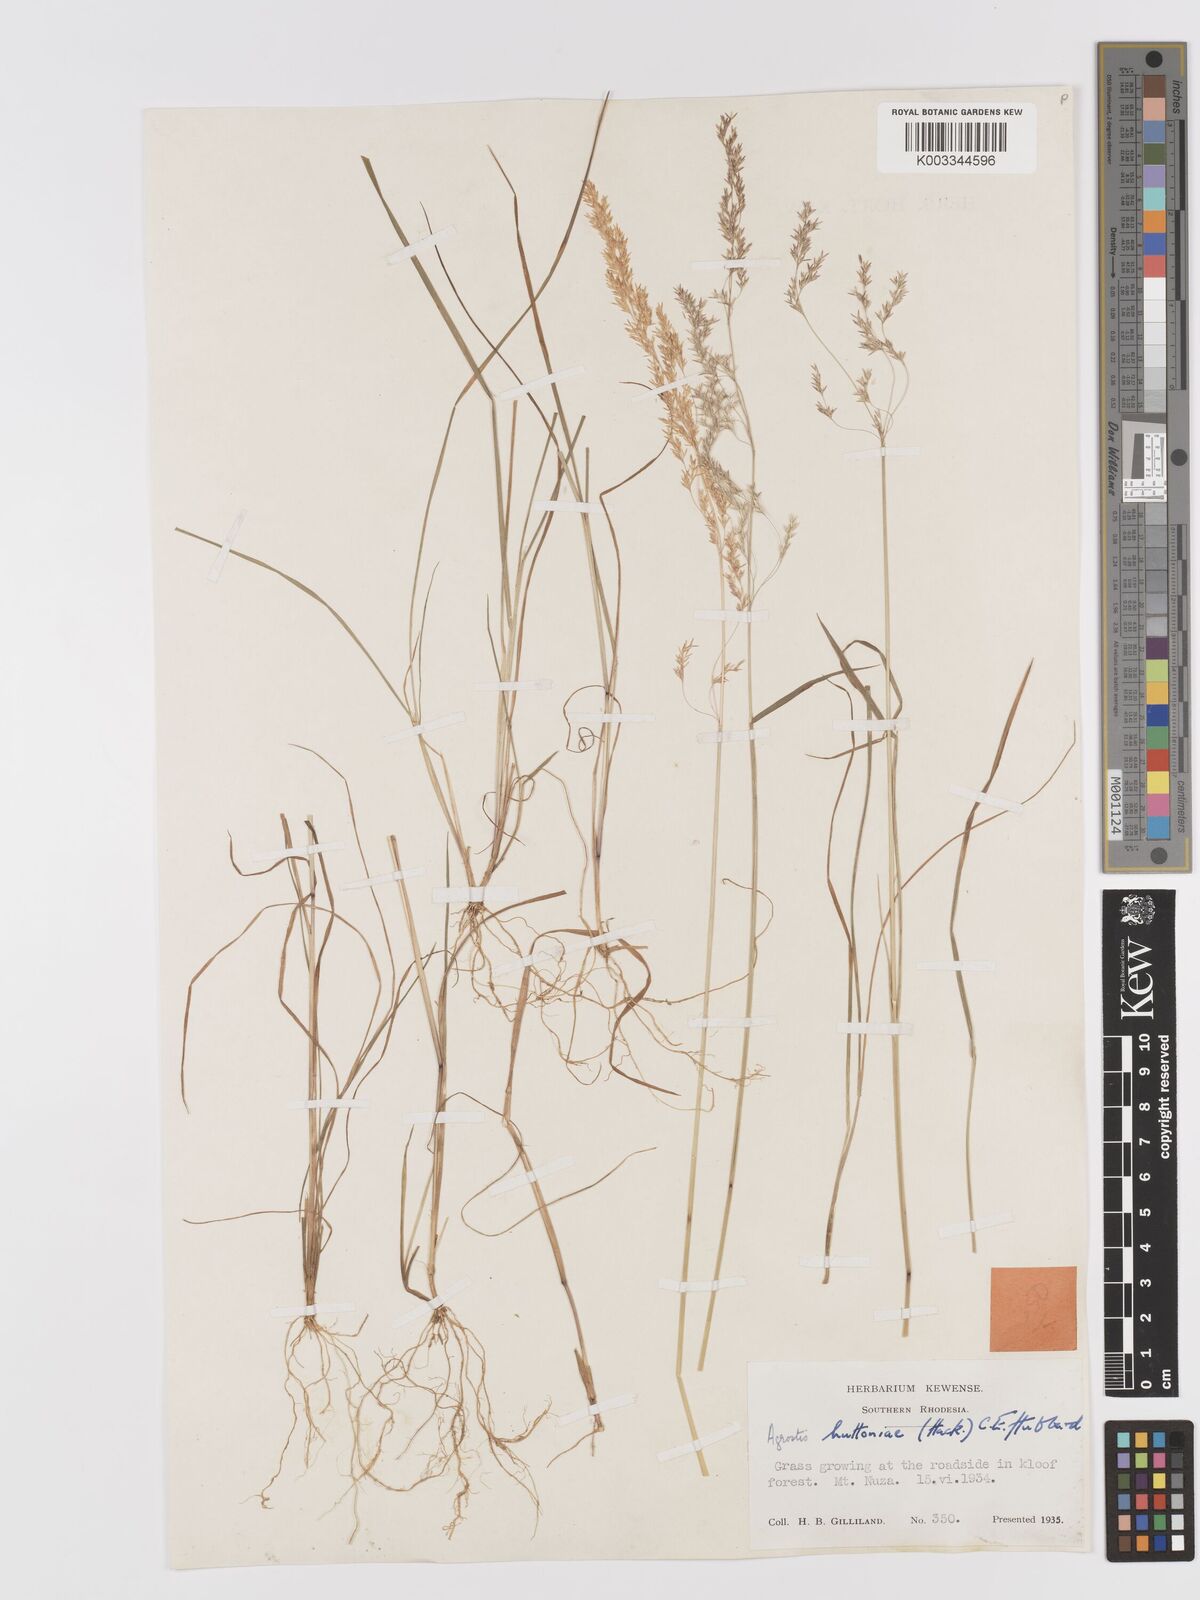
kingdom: Plantae
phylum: Tracheophyta
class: Liliopsida
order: Poales
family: Poaceae
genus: Lachnagrostis
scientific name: Lachnagrostis lachnantha
